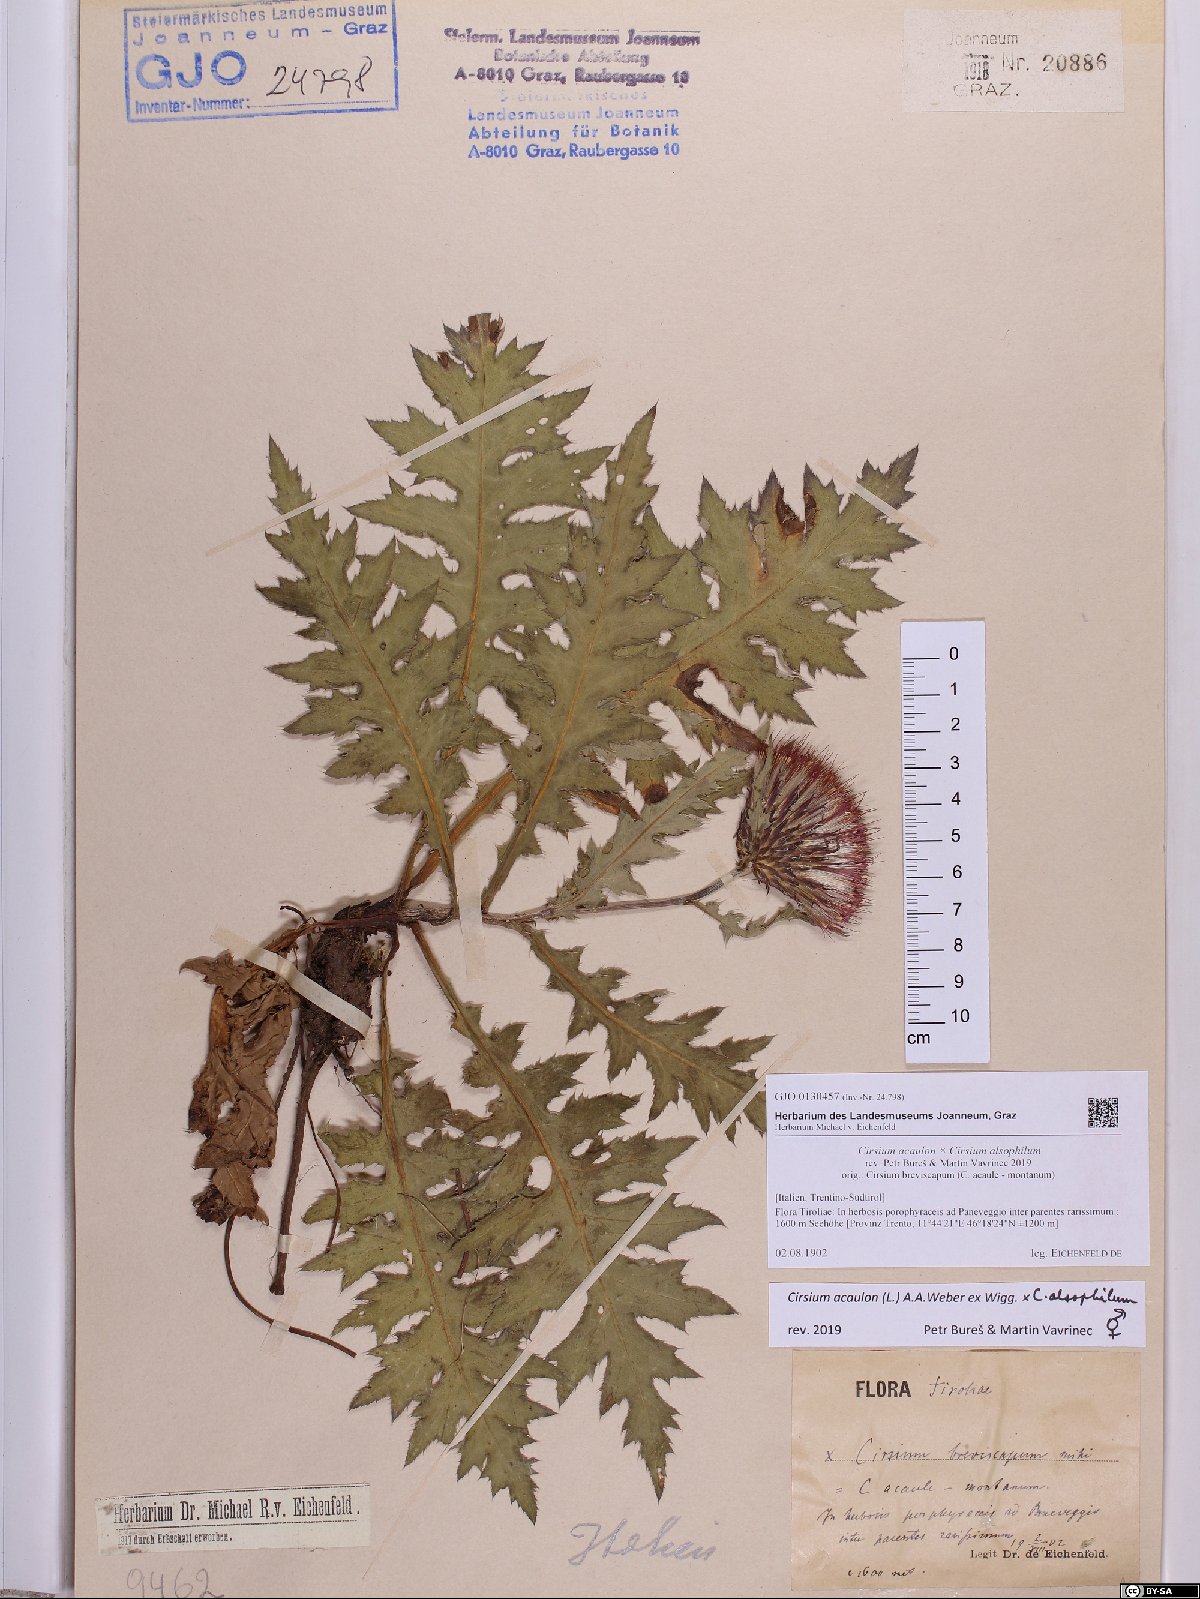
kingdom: Plantae
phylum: Tracheophyta
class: Magnoliopsida
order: Asterales
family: Asteraceae
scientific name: Asteraceae
